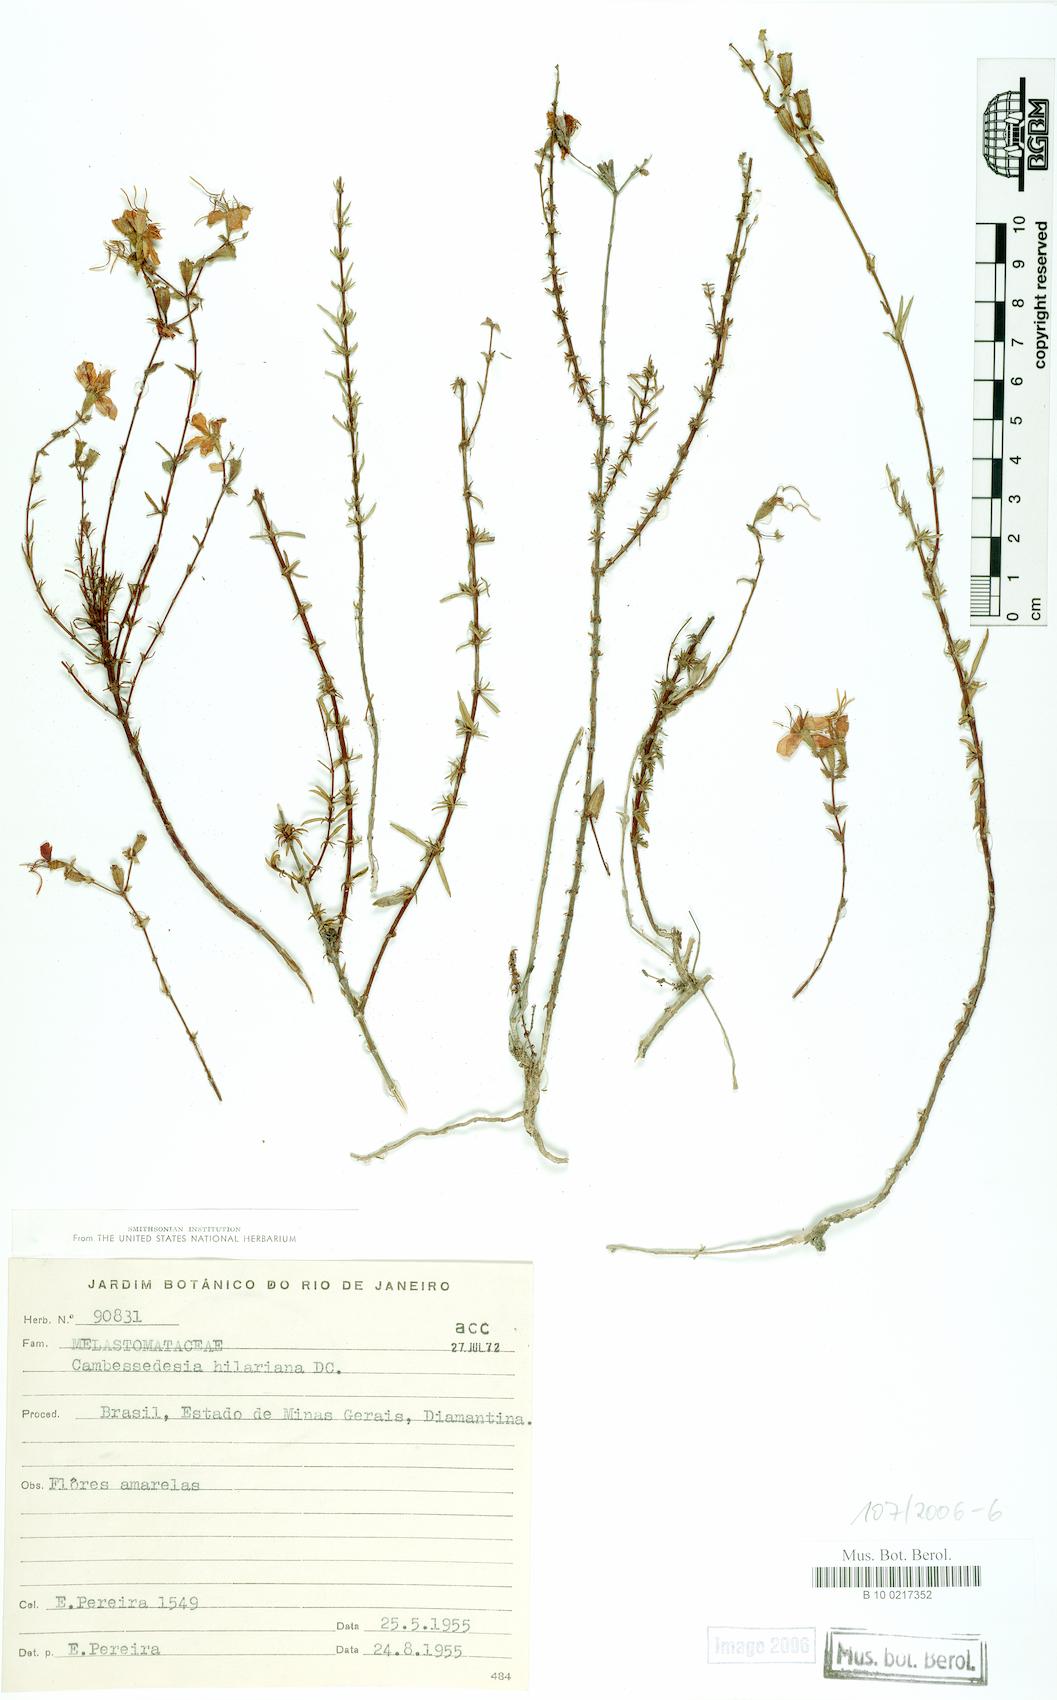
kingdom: Plantae
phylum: Tracheophyta
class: Magnoliopsida
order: Myrtales
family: Melastomataceae
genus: Cambessedesia
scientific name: Cambessedesia hilariana
